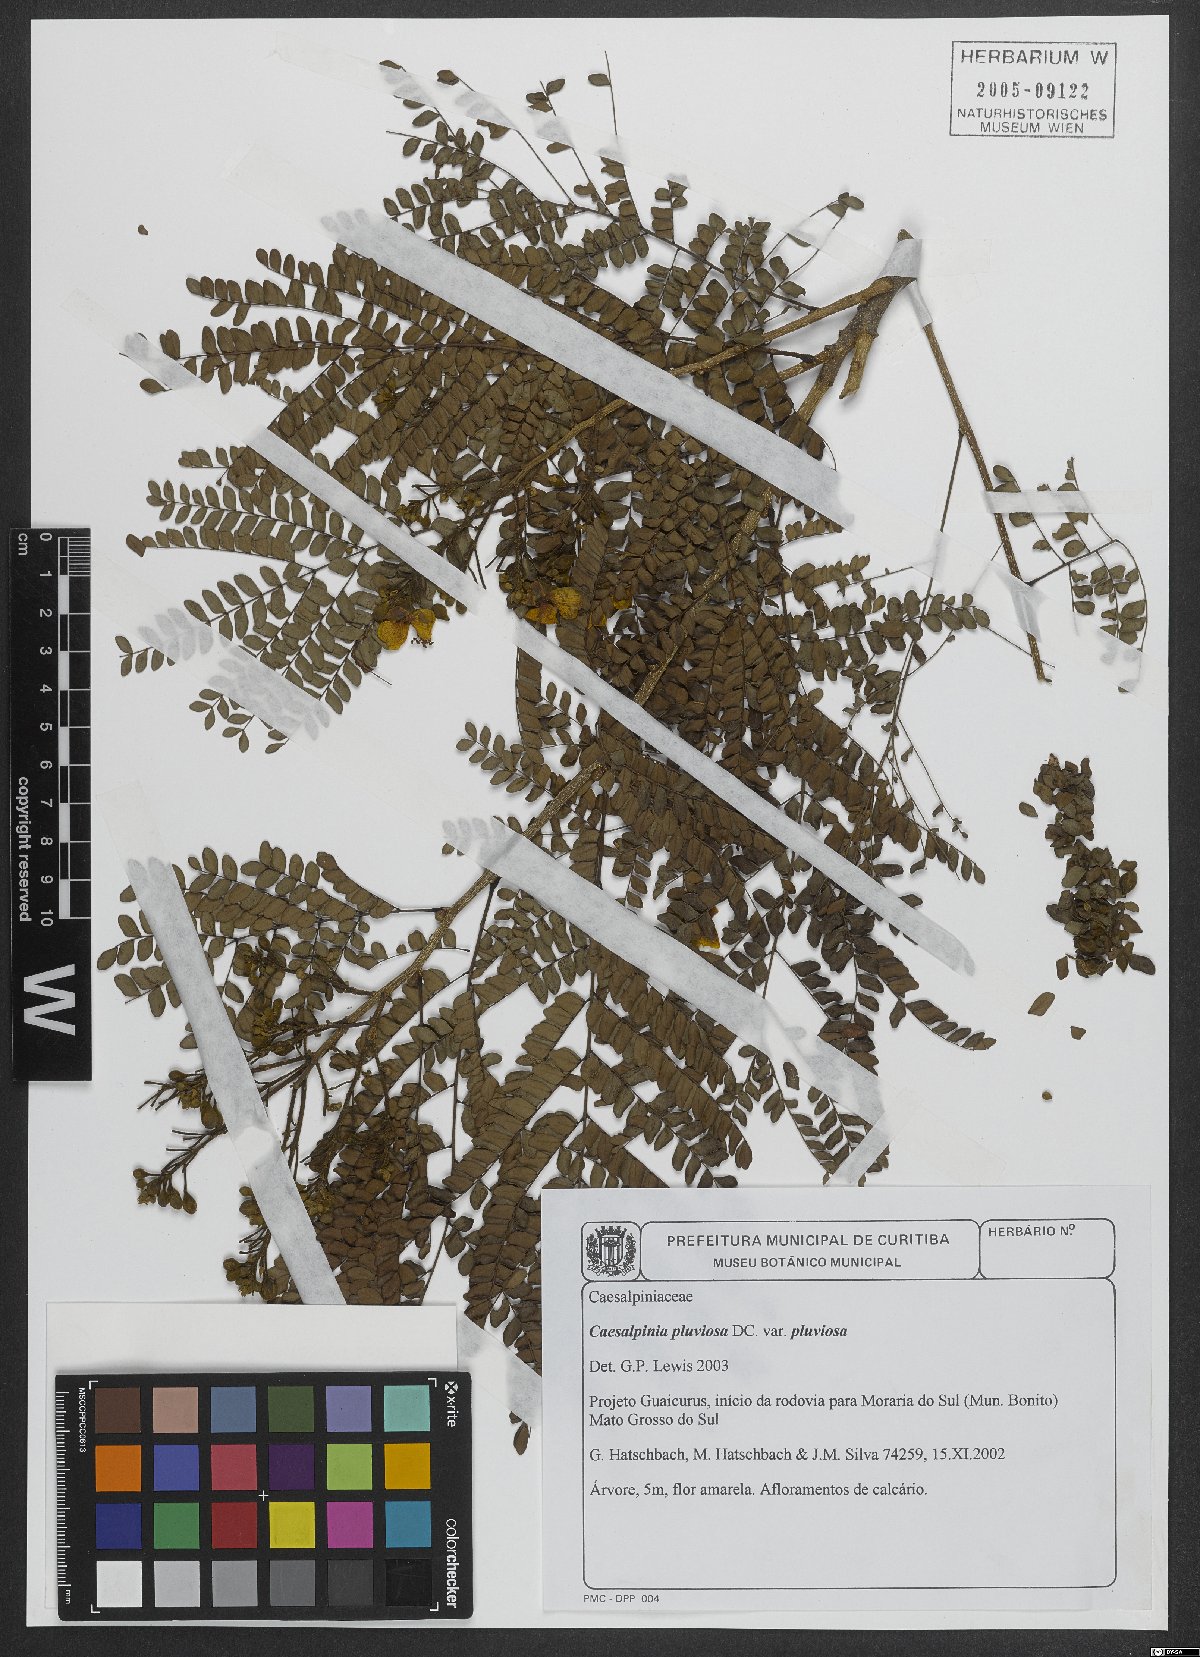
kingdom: Plantae
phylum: Tracheophyta
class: Magnoliopsida
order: Fabales
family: Fabaceae
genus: Cenostigma
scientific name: Cenostigma pluviosum
